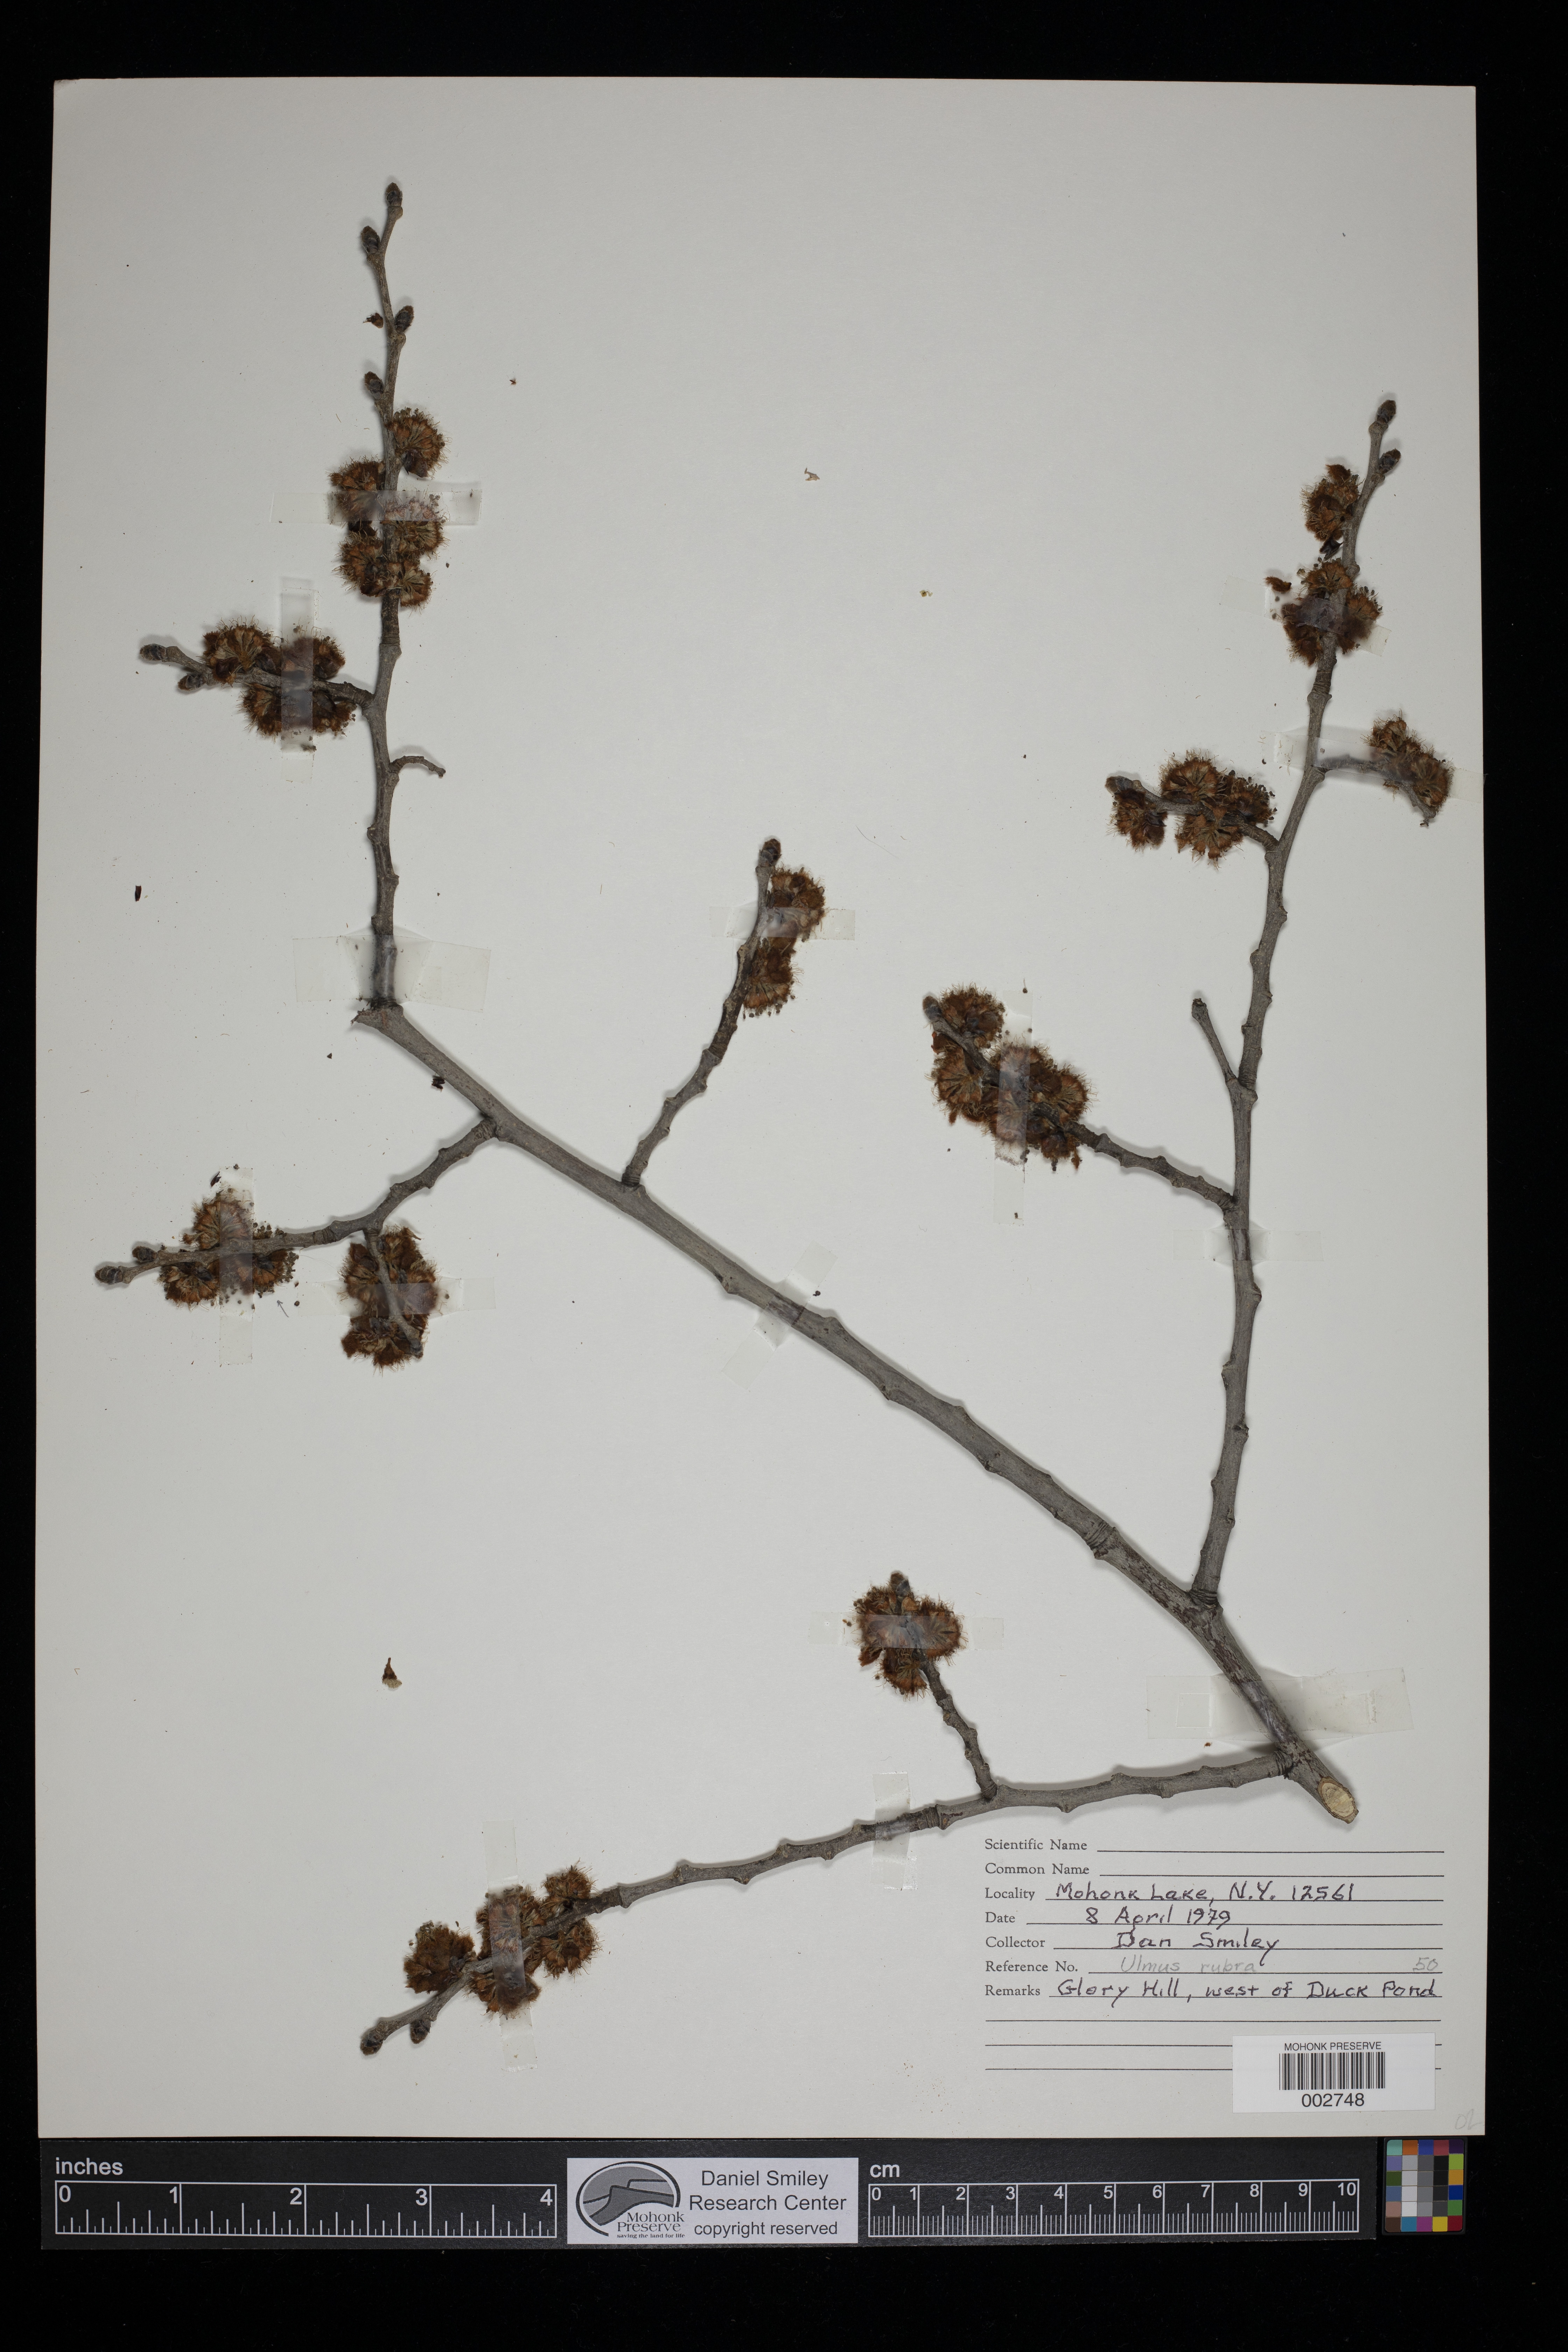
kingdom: Plantae
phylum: Tracheophyta
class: Magnoliopsida
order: Rosales
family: Ulmaceae
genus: Ulmus
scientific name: Ulmus rubra
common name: Slippery elm
